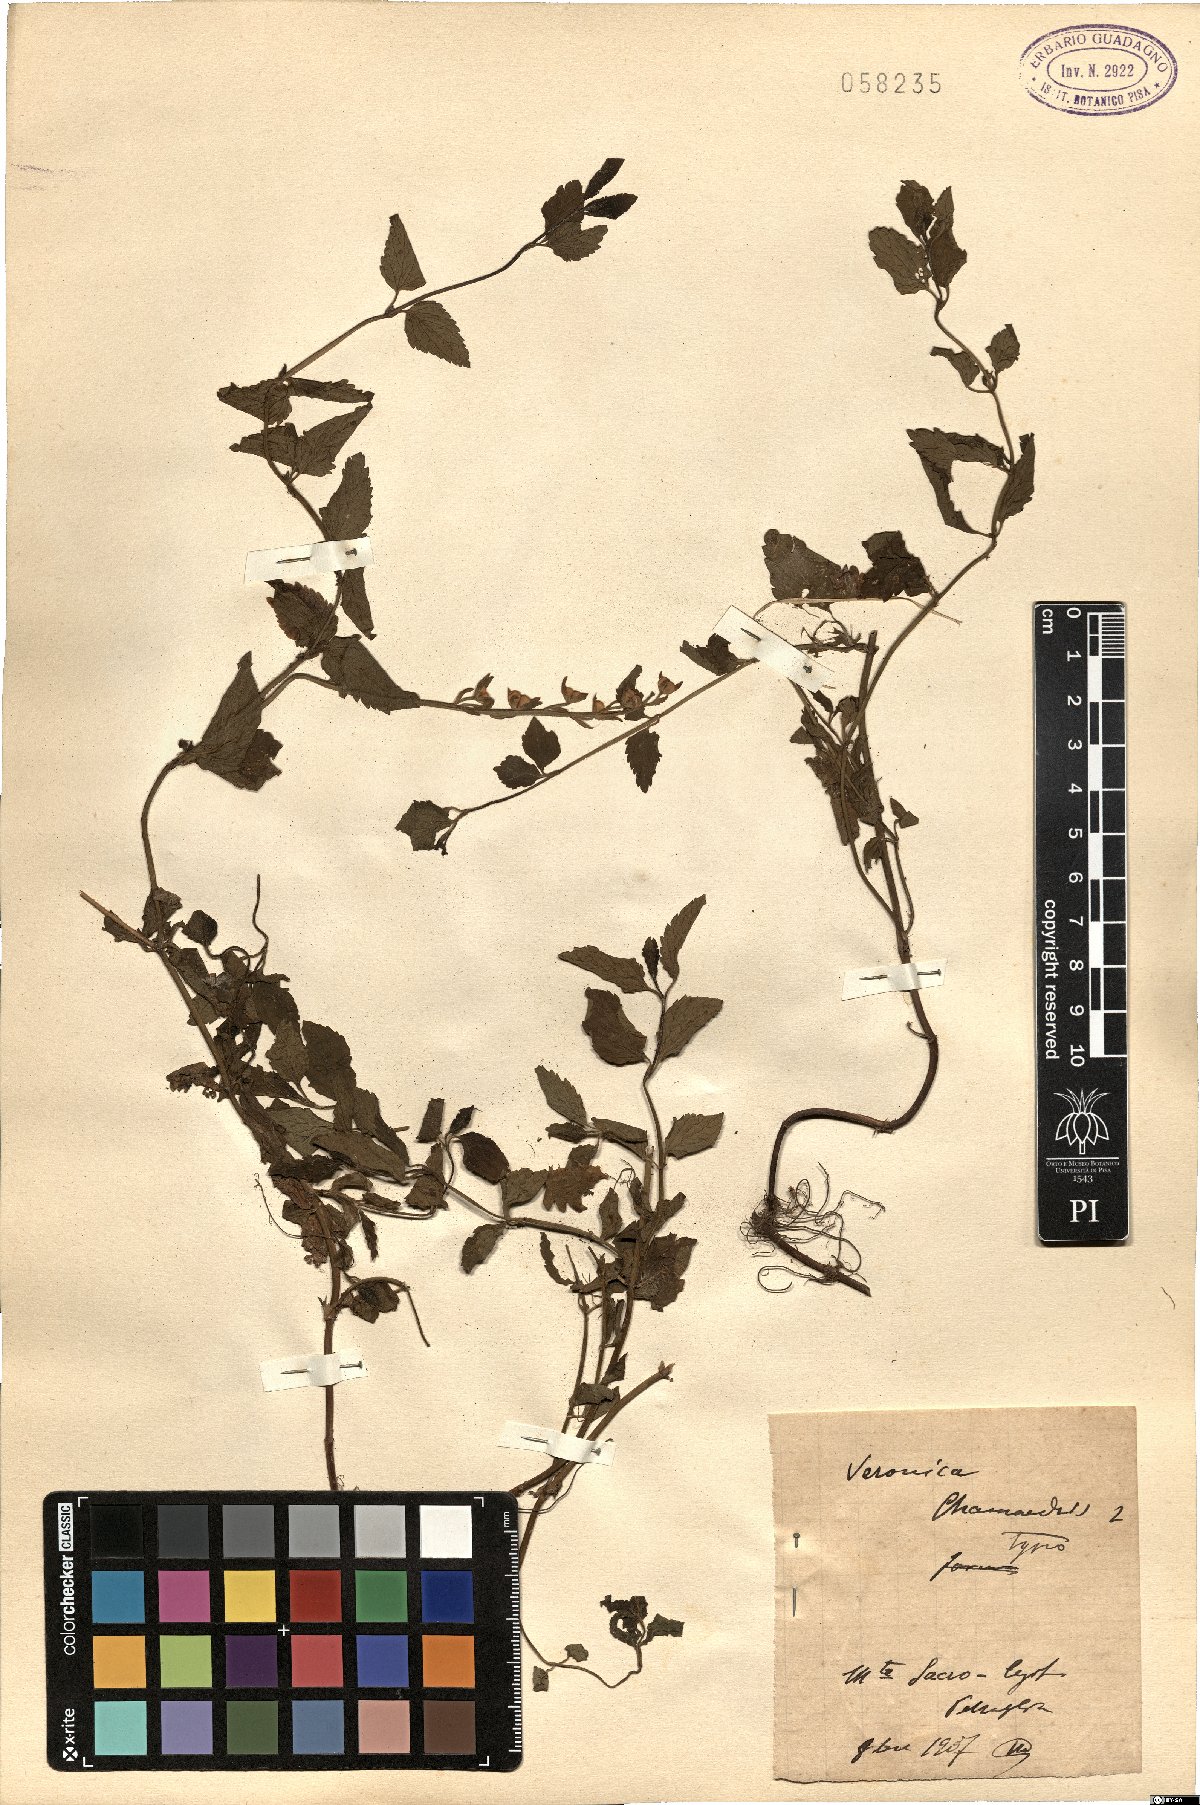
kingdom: Plantae
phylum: Tracheophyta
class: Magnoliopsida
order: Lamiales
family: Plantaginaceae
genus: Veronica
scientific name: Veronica chamaedrys
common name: Germander speedwell
